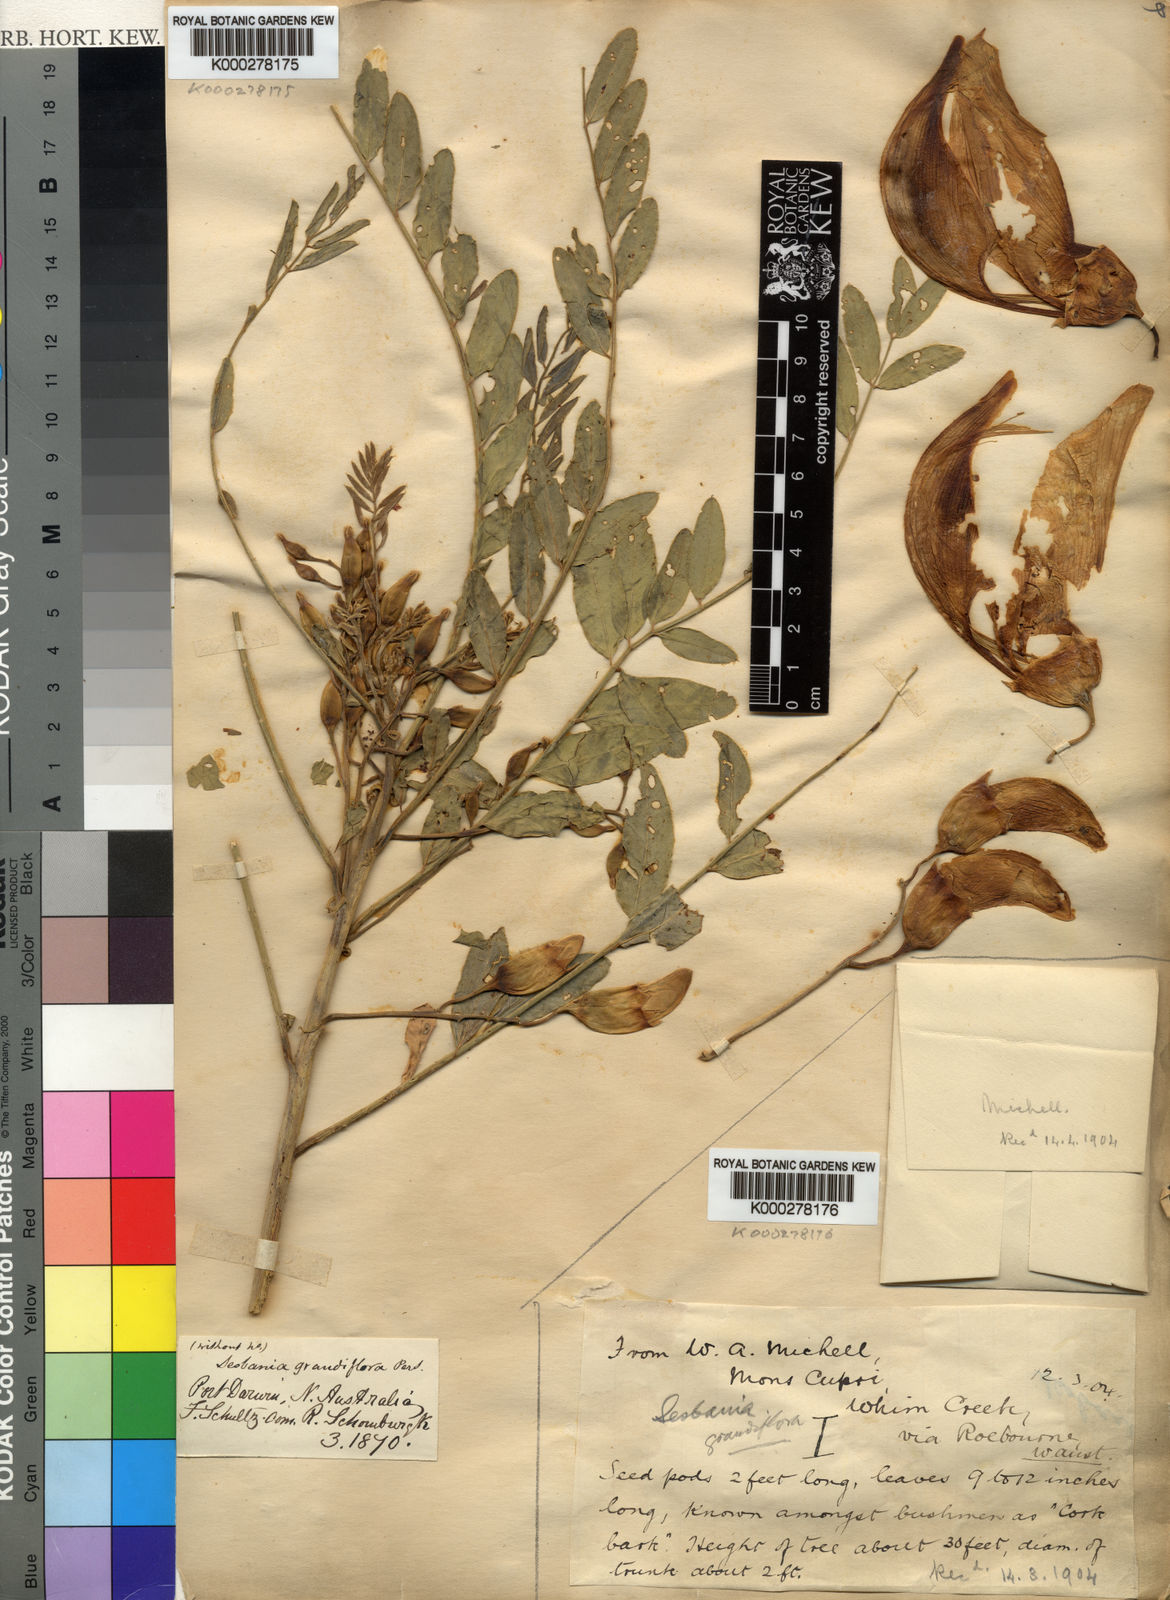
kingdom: Plantae
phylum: Tracheophyta
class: Magnoliopsida
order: Fabales
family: Fabaceae
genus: Sesbania
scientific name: Sesbania
